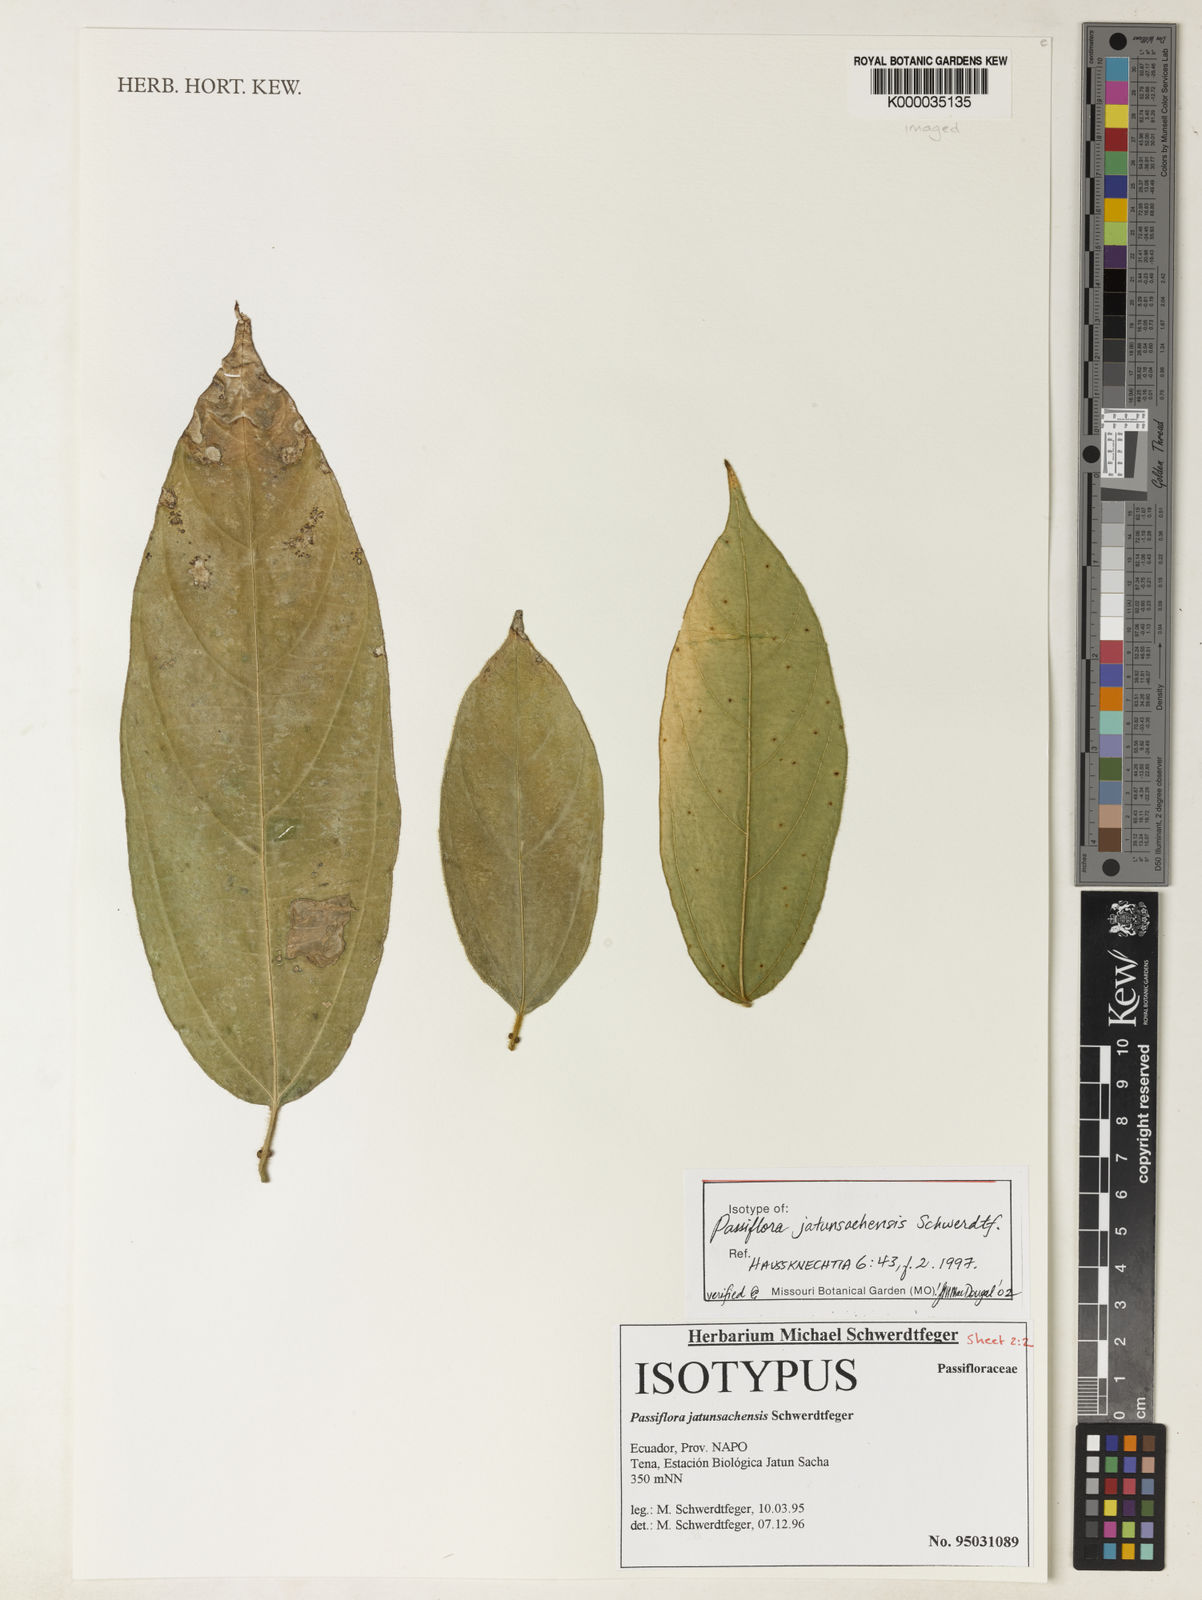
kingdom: Plantae
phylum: Tracheophyta
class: Magnoliopsida
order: Malpighiales
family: Passifloraceae
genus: Passiflora
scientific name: Passiflora jatunsachensis
